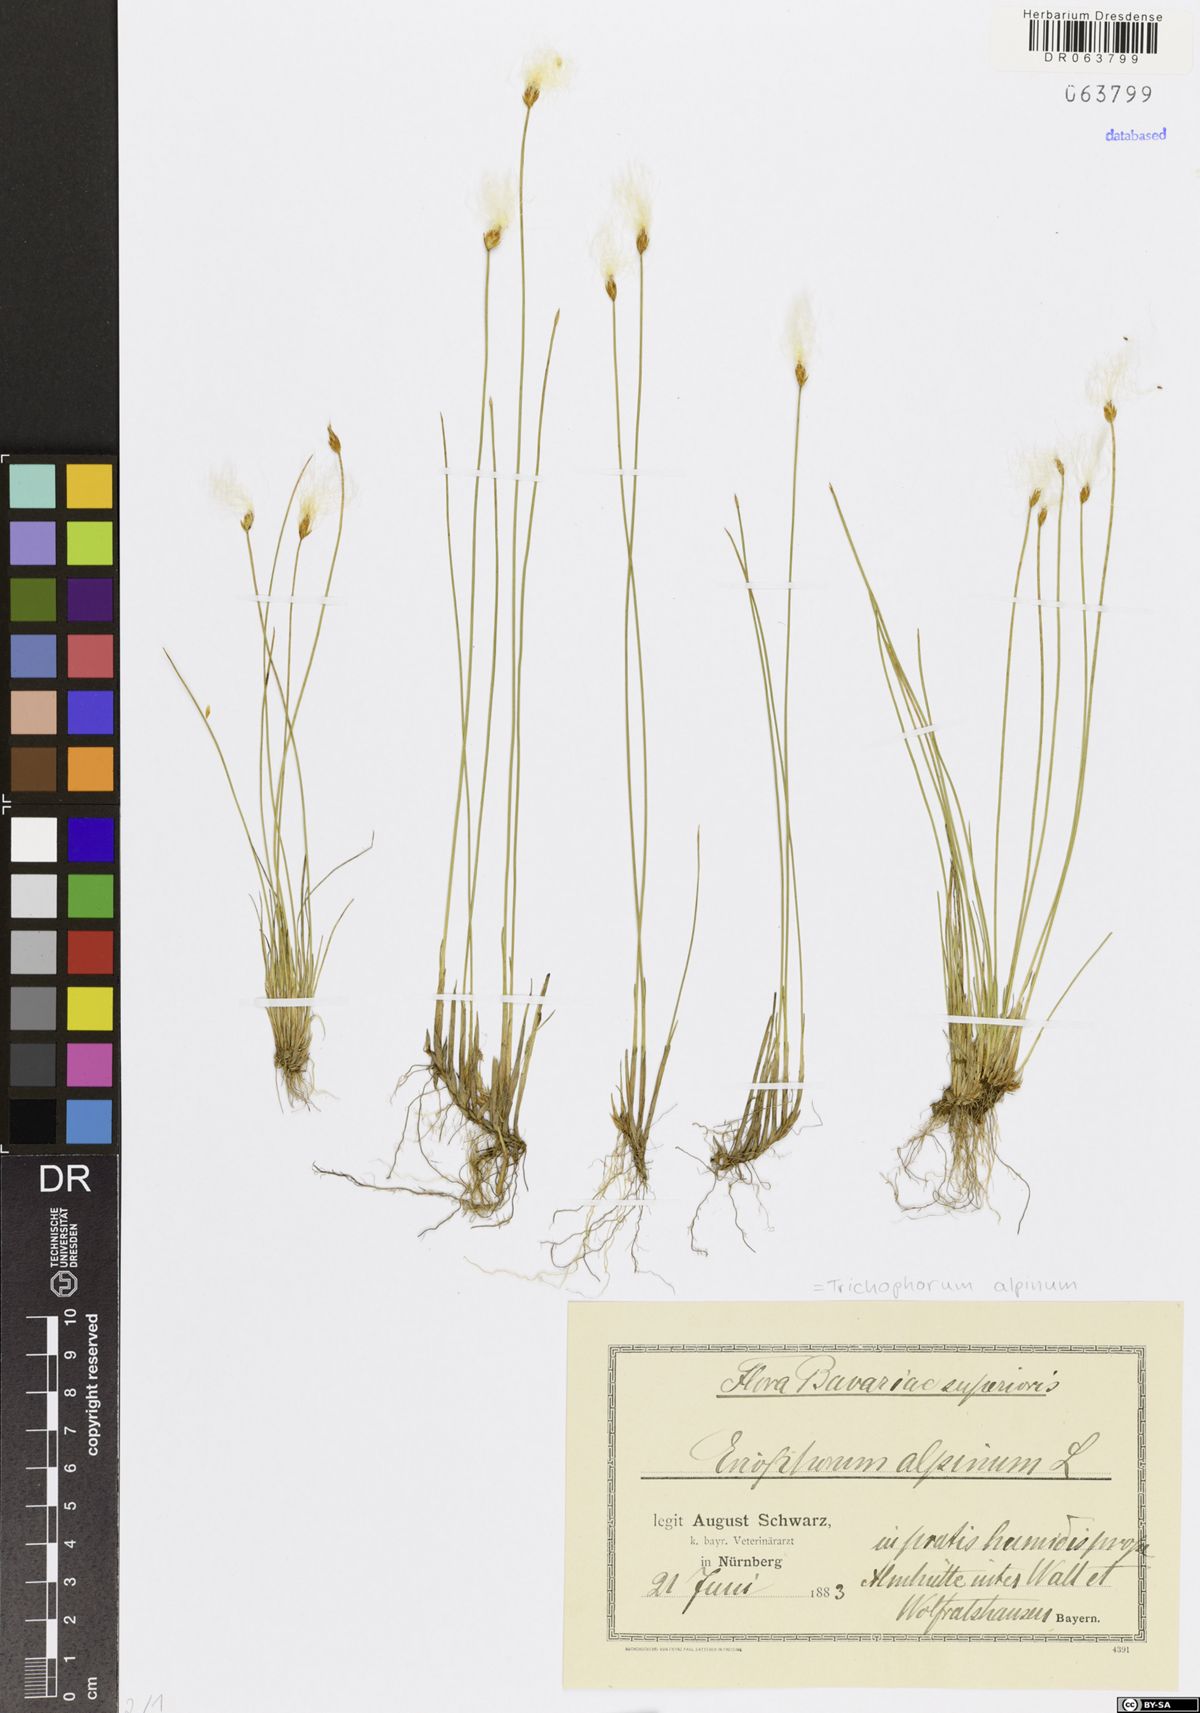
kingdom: Plantae
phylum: Tracheophyta
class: Liliopsida
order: Poales
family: Cyperaceae
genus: Trichophorum
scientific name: Trichophorum alpinum
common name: Alpine bulrush
